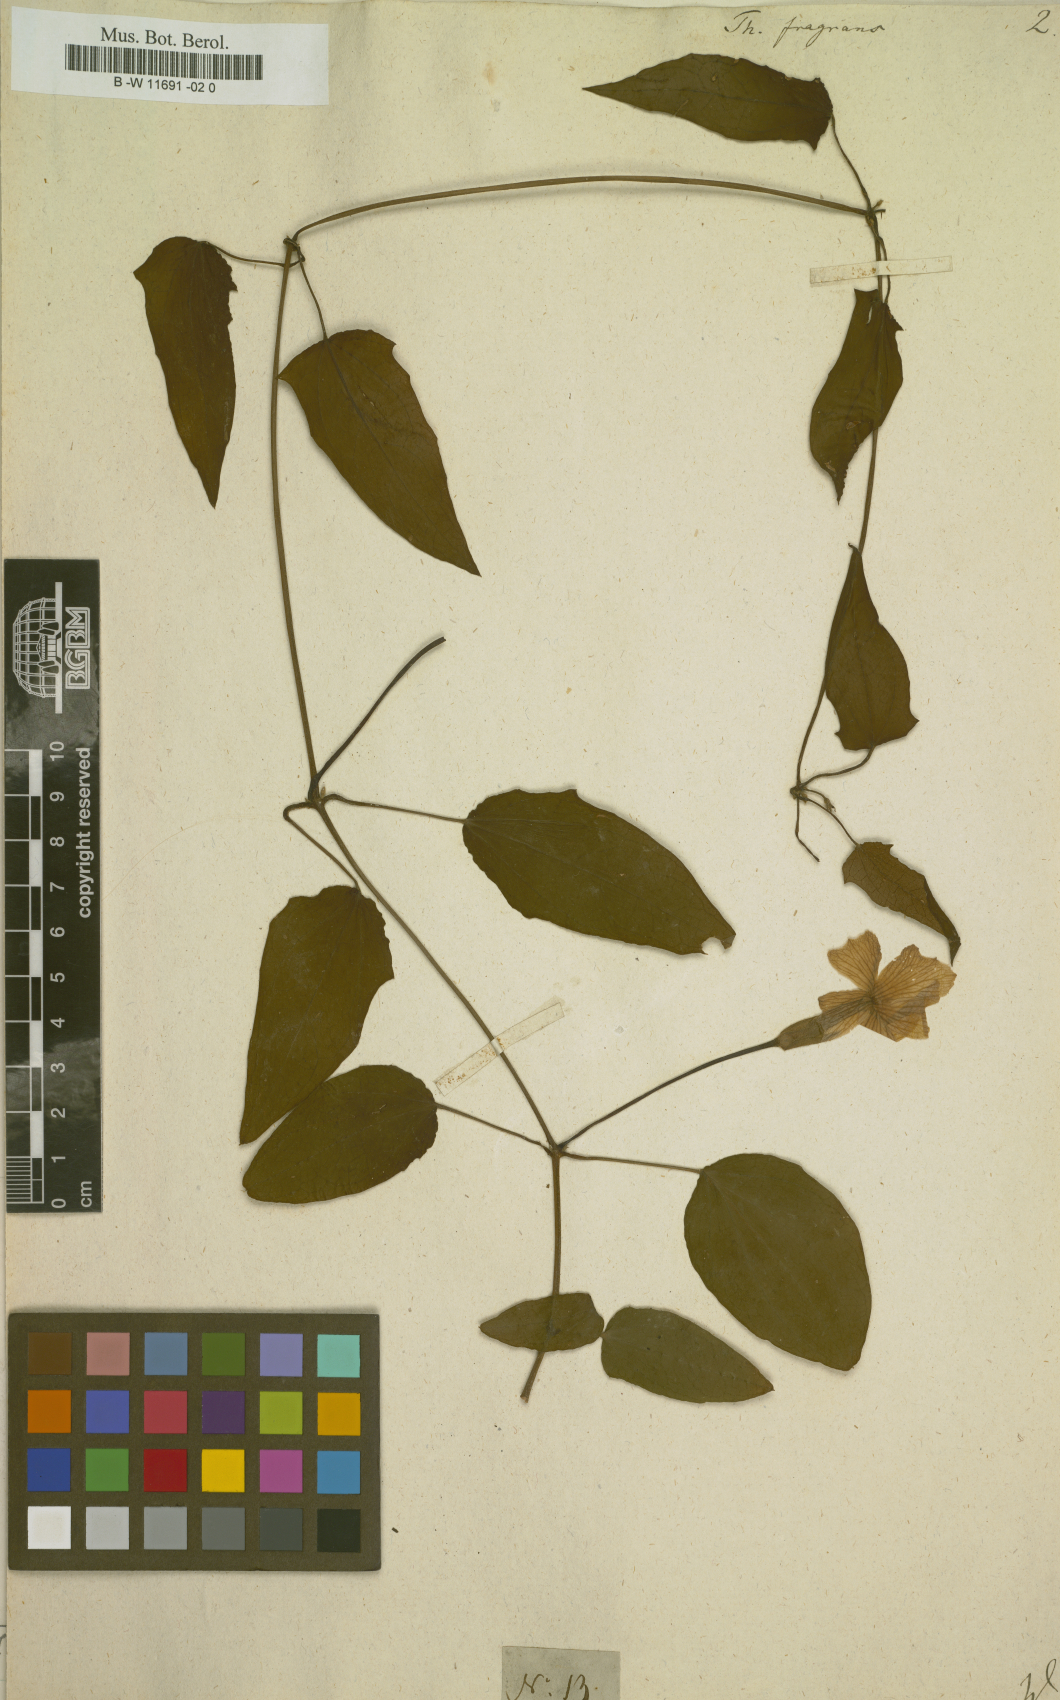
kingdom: Plantae
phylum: Tracheophyta
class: Magnoliopsida
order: Lamiales
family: Acanthaceae
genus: Thunbergia
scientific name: Thunbergia fragrans
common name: Whitelady
